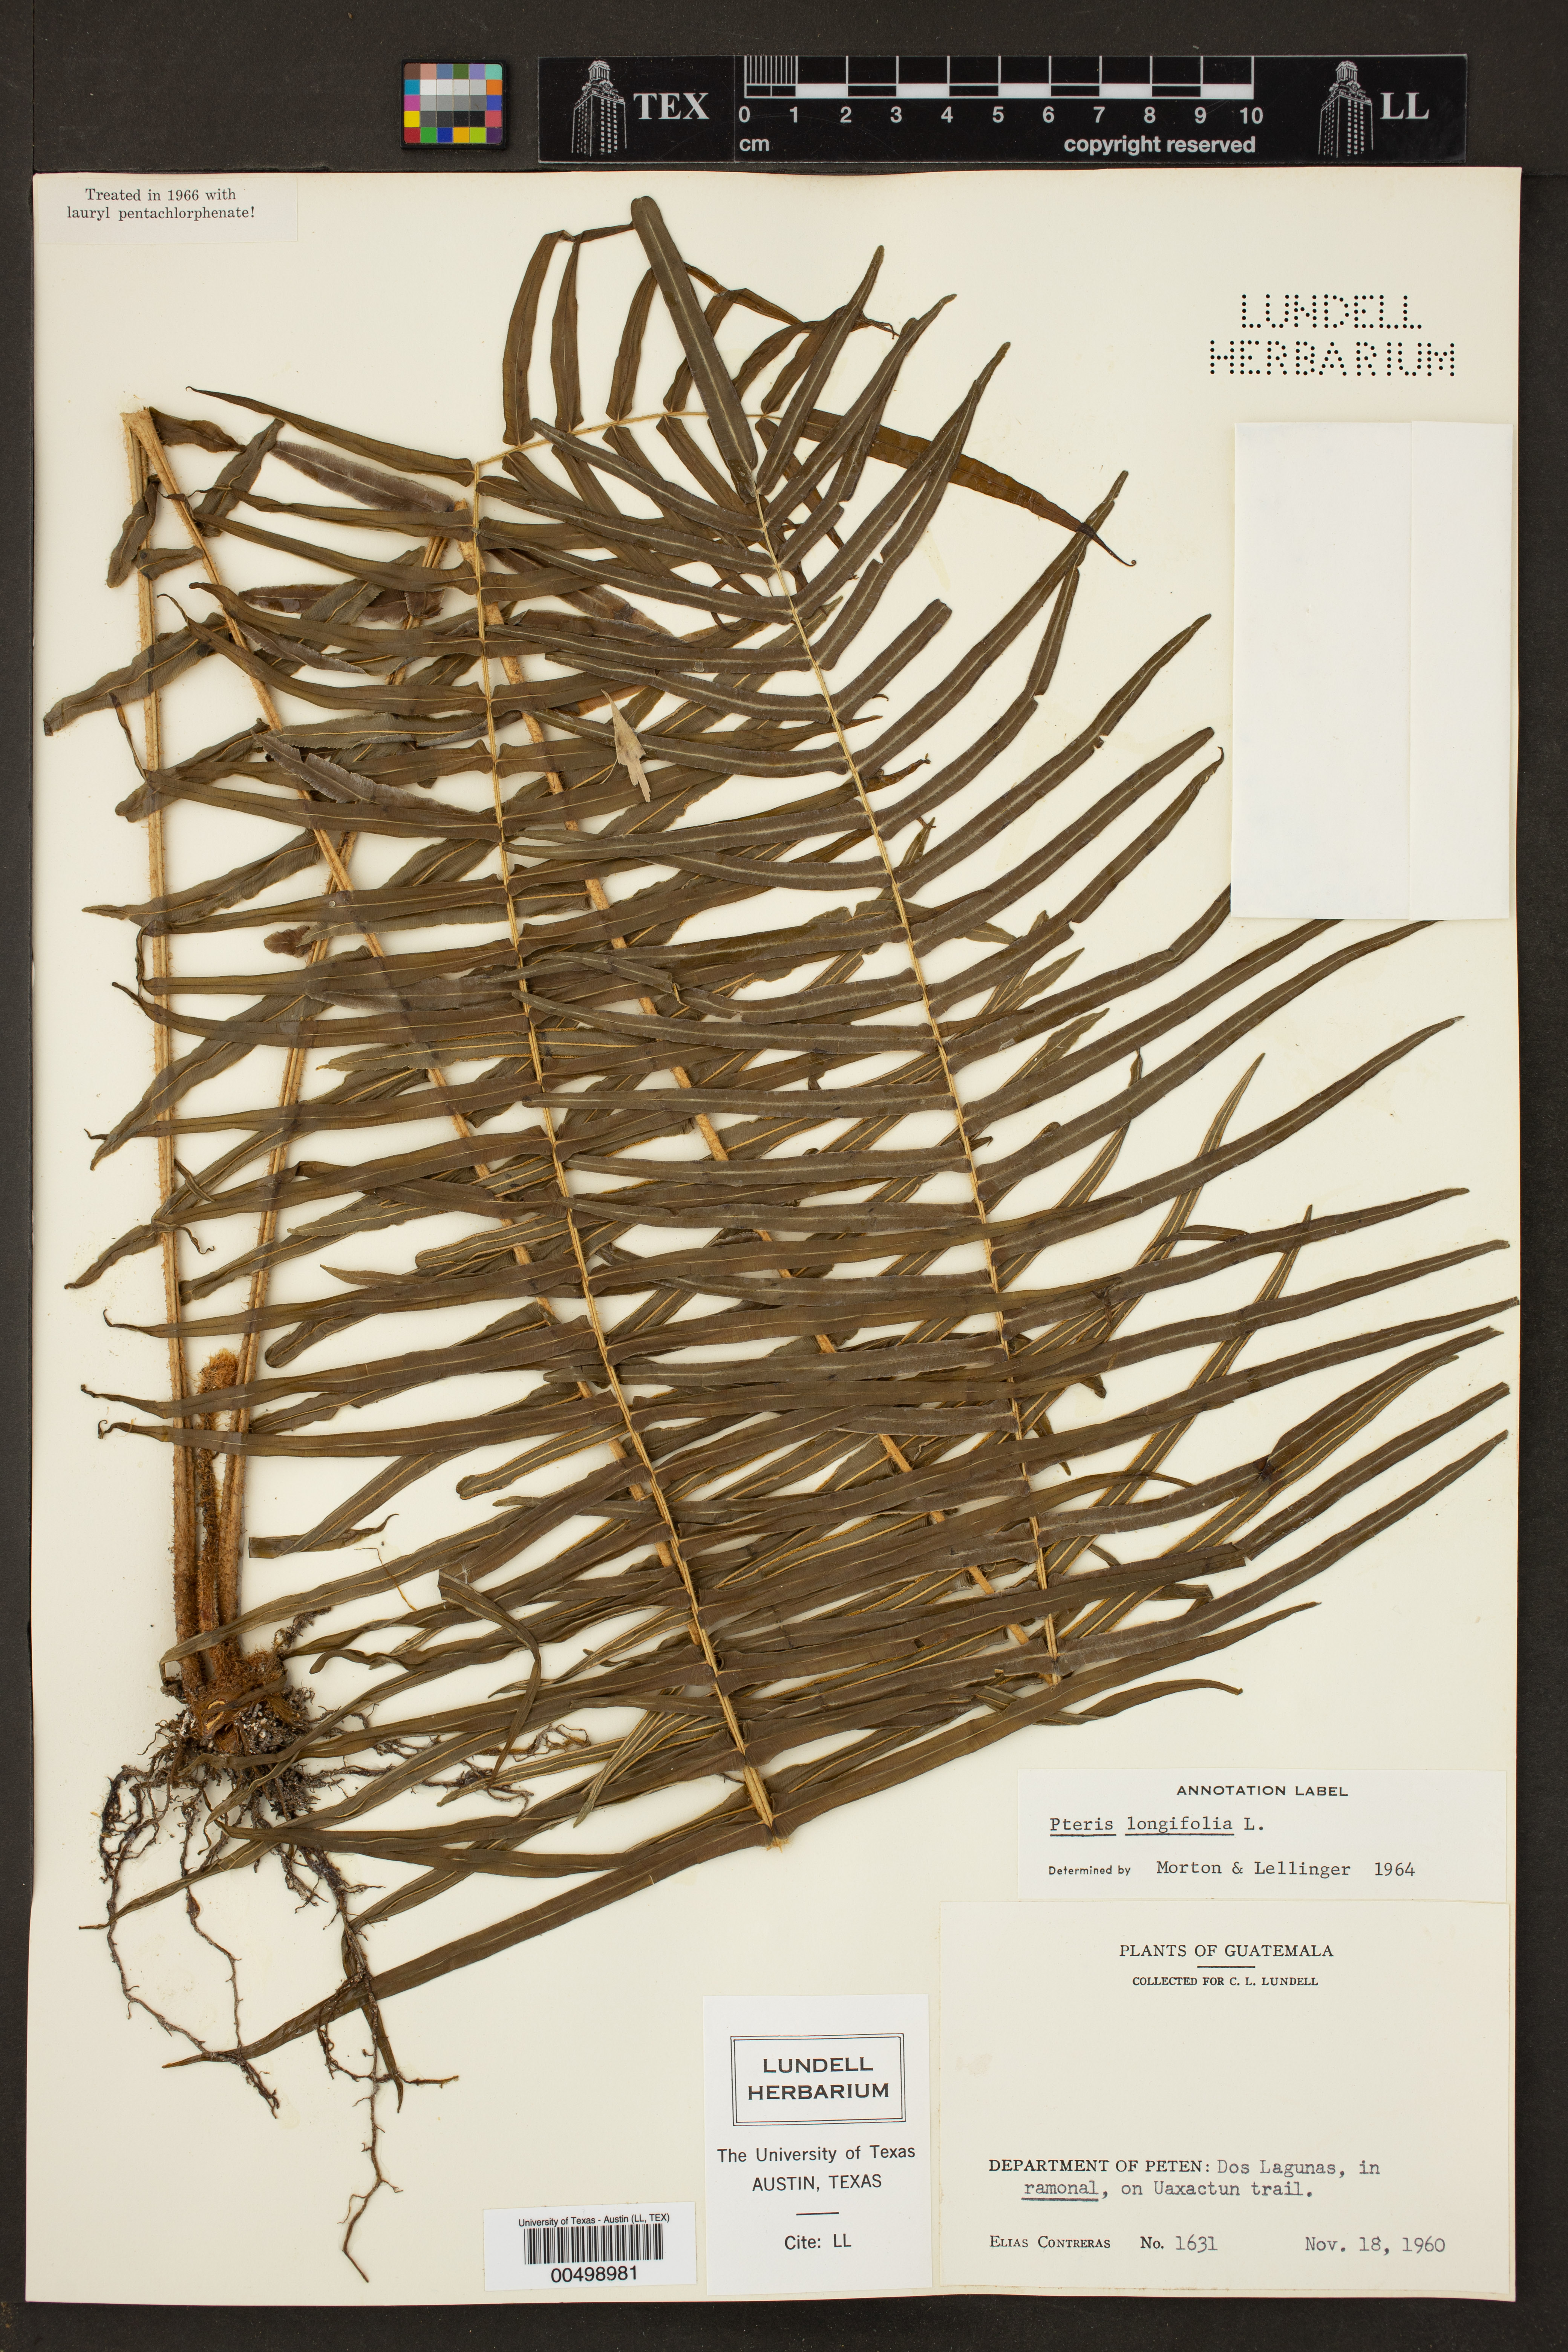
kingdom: Plantae
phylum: Tracheophyta
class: Polypodiopsida
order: Polypodiales
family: Pteridaceae
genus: Pteris
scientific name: Pteris longifolia
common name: Longleaf brake
